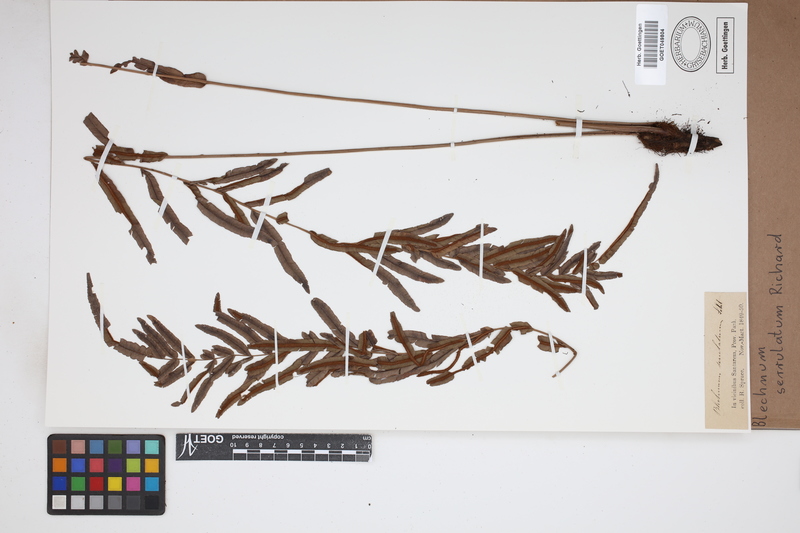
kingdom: Plantae
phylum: Tracheophyta
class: Polypodiopsida
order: Polypodiales
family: Blechnaceae
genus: Telmatoblechnum
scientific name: Telmatoblechnum serrulatum
